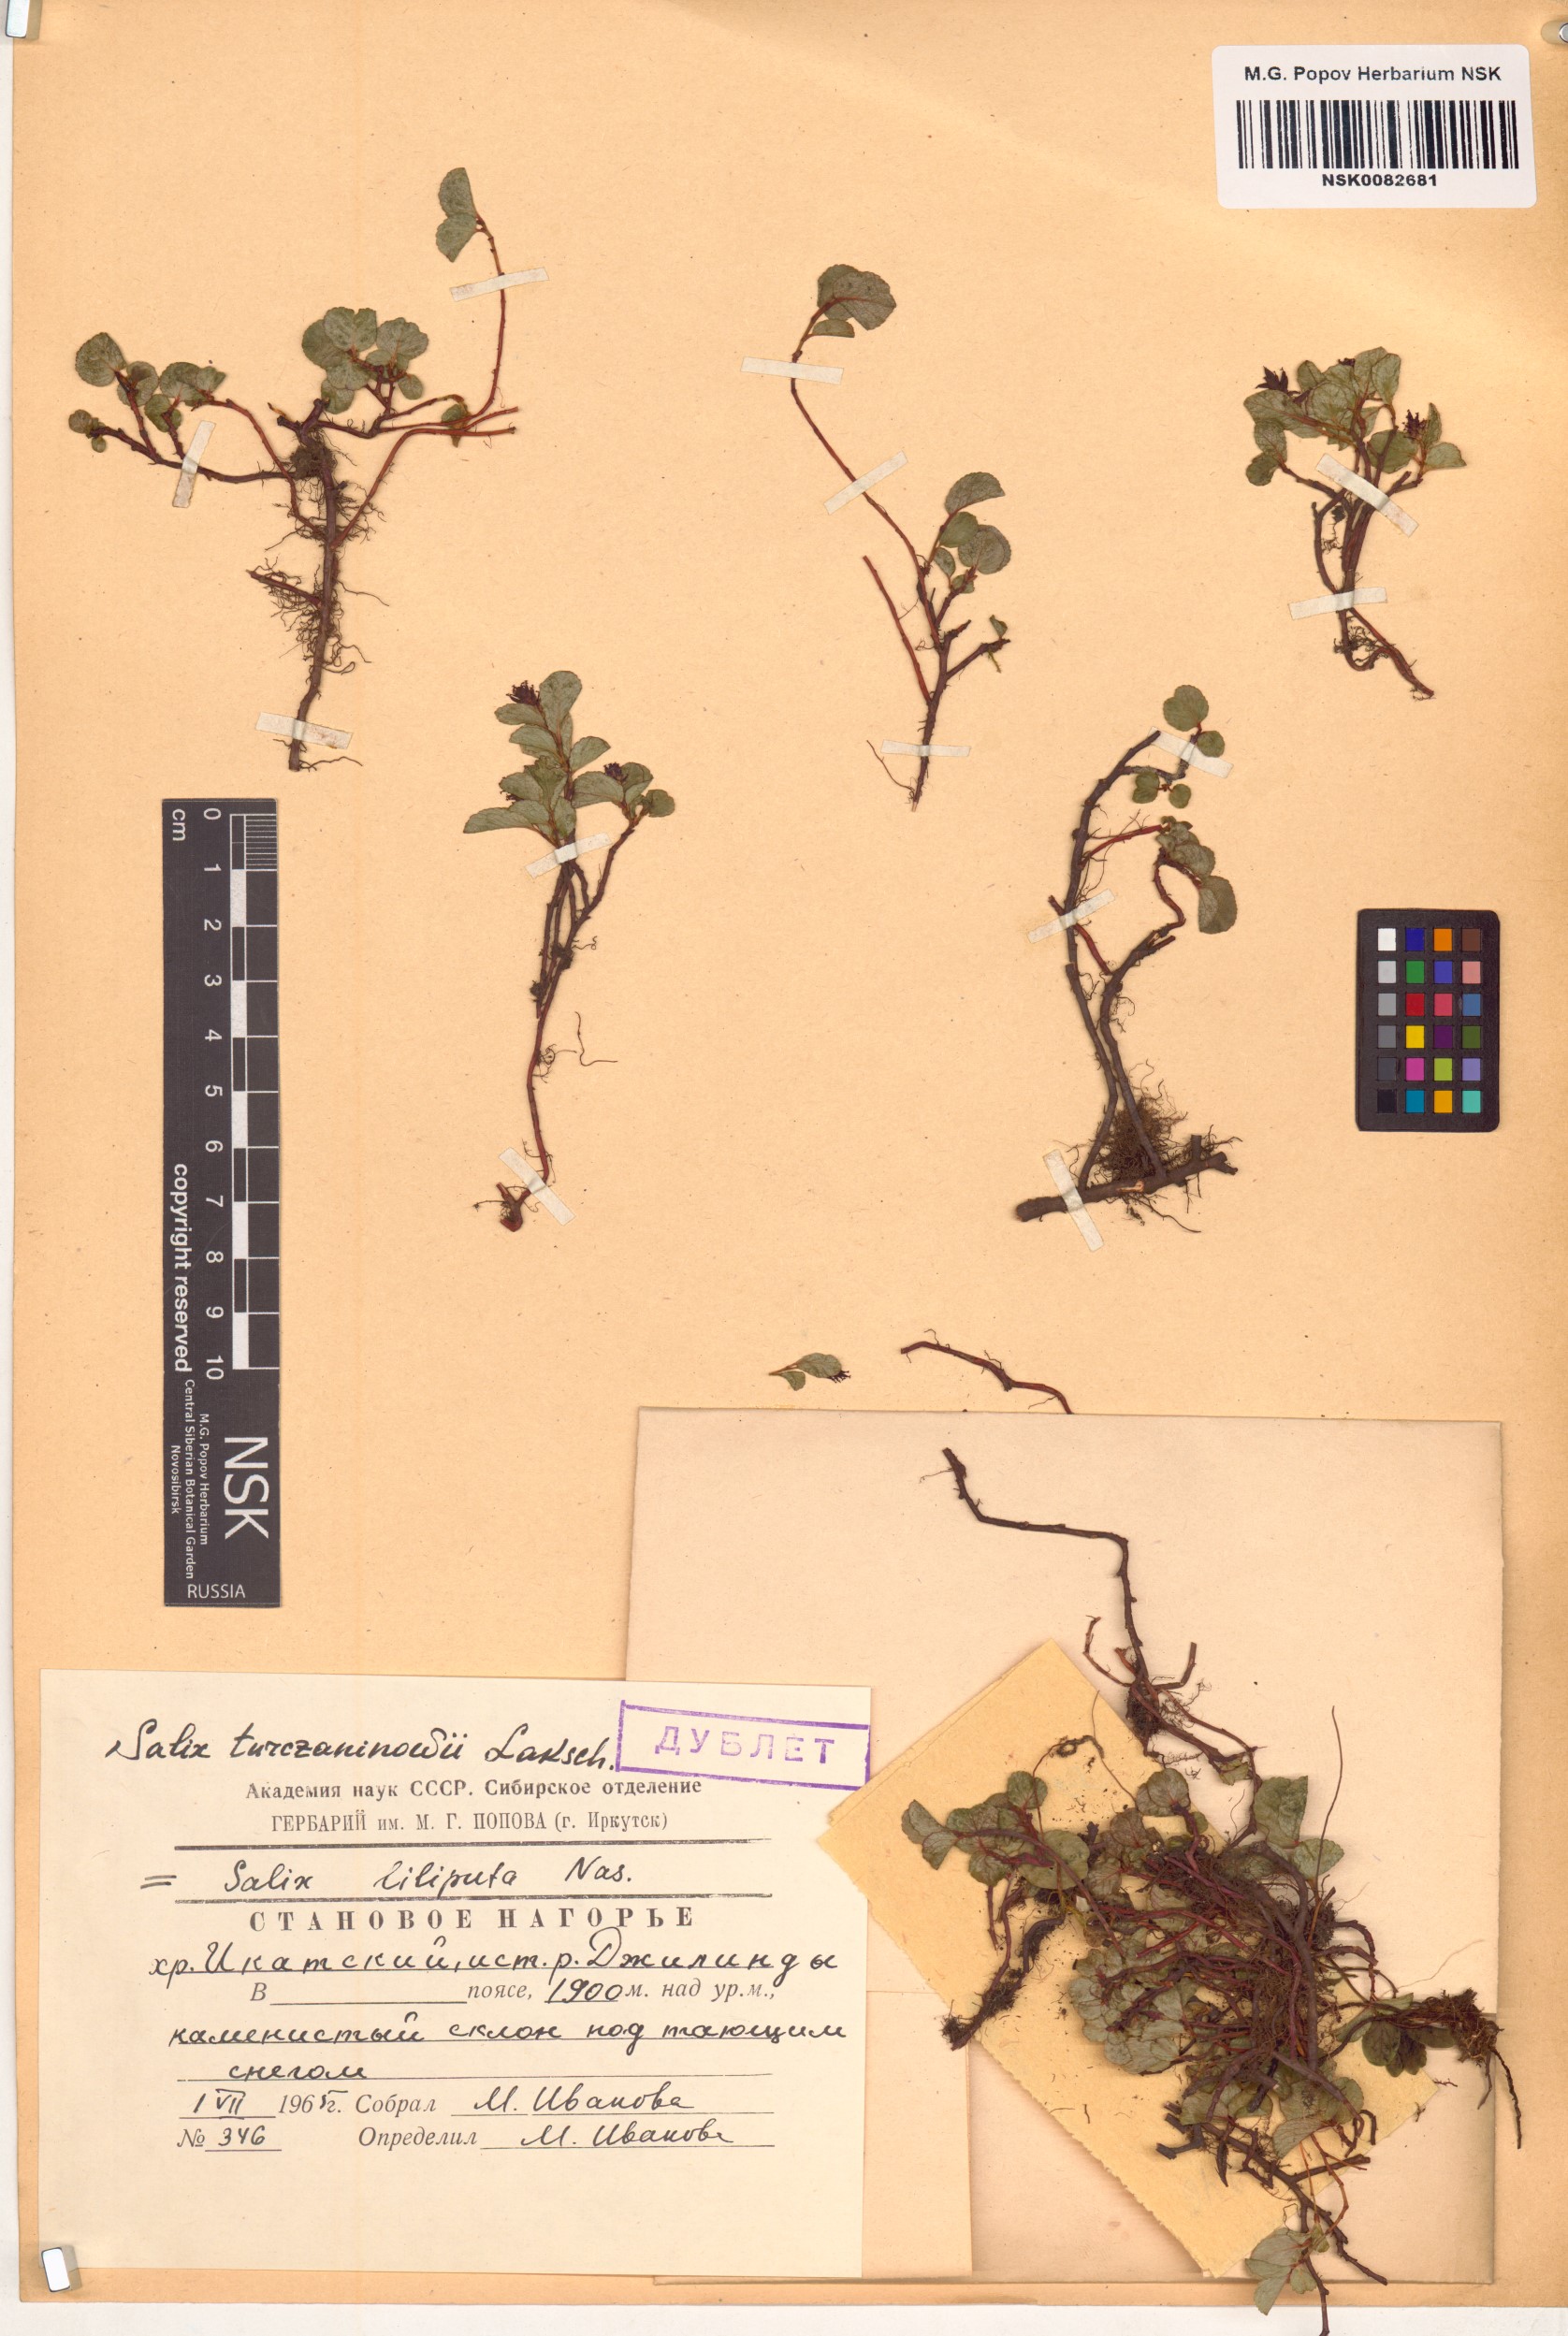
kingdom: Plantae
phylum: Tracheophyta
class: Magnoliopsida
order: Malpighiales
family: Salicaceae
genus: Salix
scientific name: Salix turczaninowii
